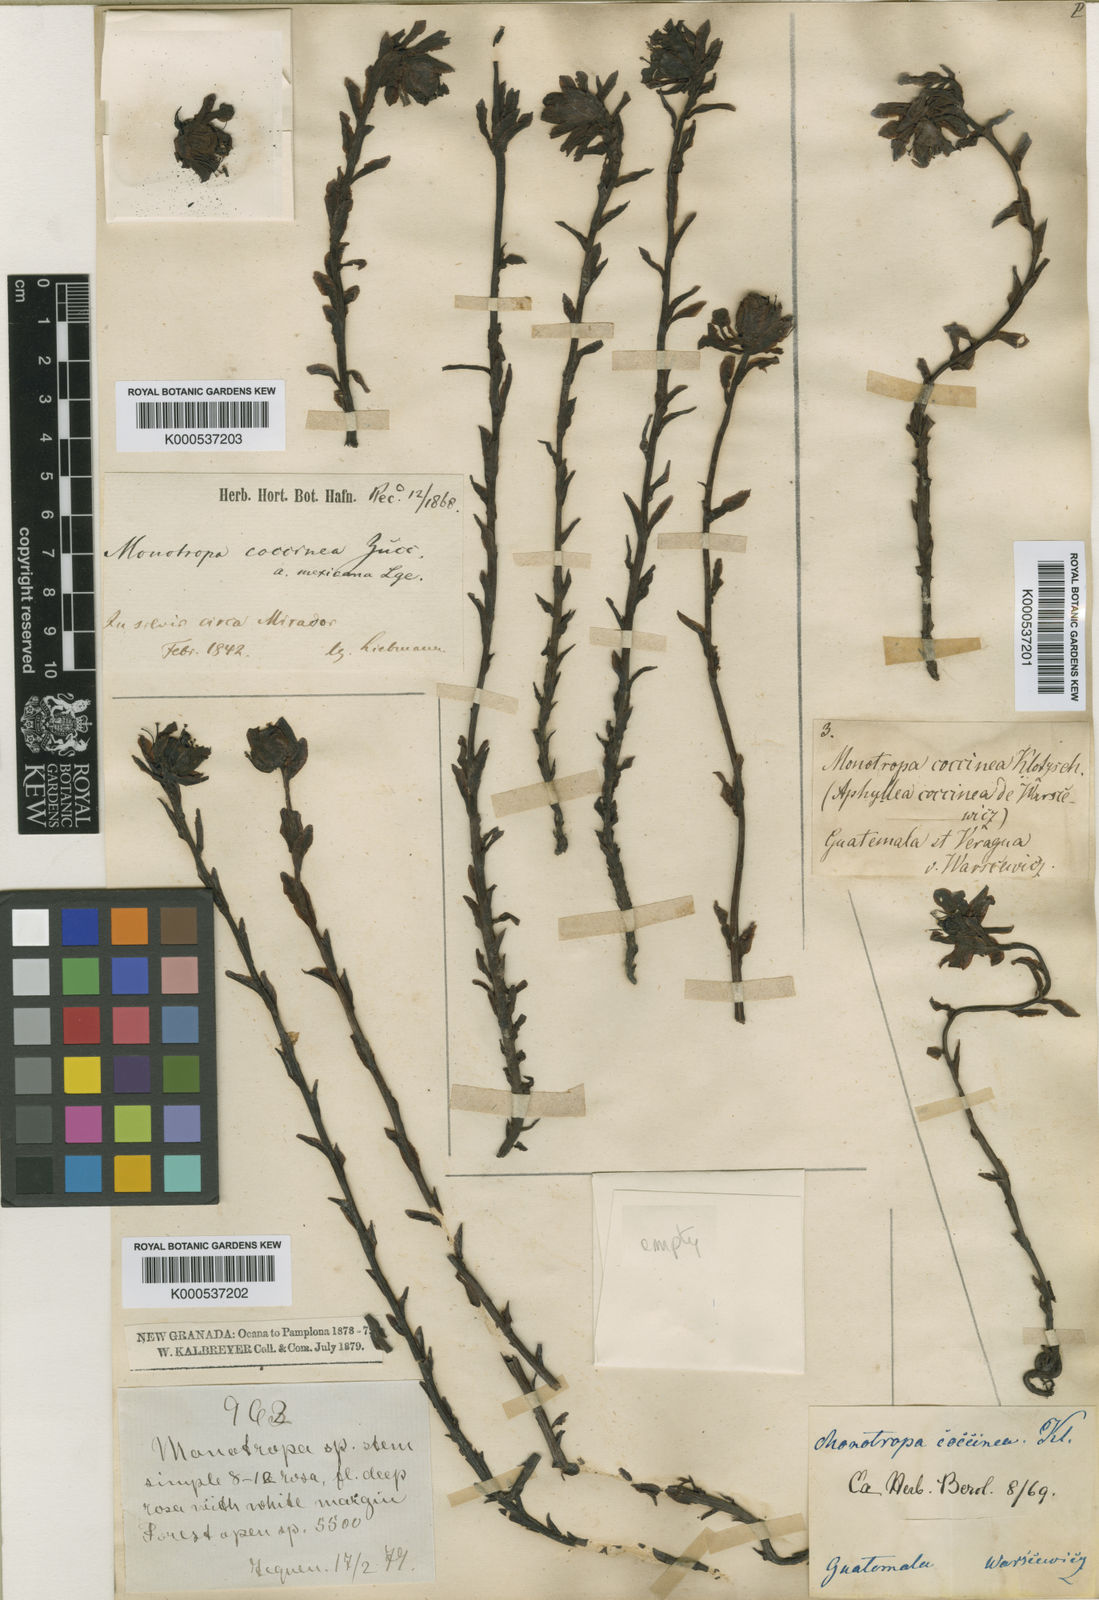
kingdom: Plantae
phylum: Tracheophyta
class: Magnoliopsida
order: Ericales
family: Ericaceae
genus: Monotropa
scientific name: Monotropa uniflora
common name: Convulsion root
